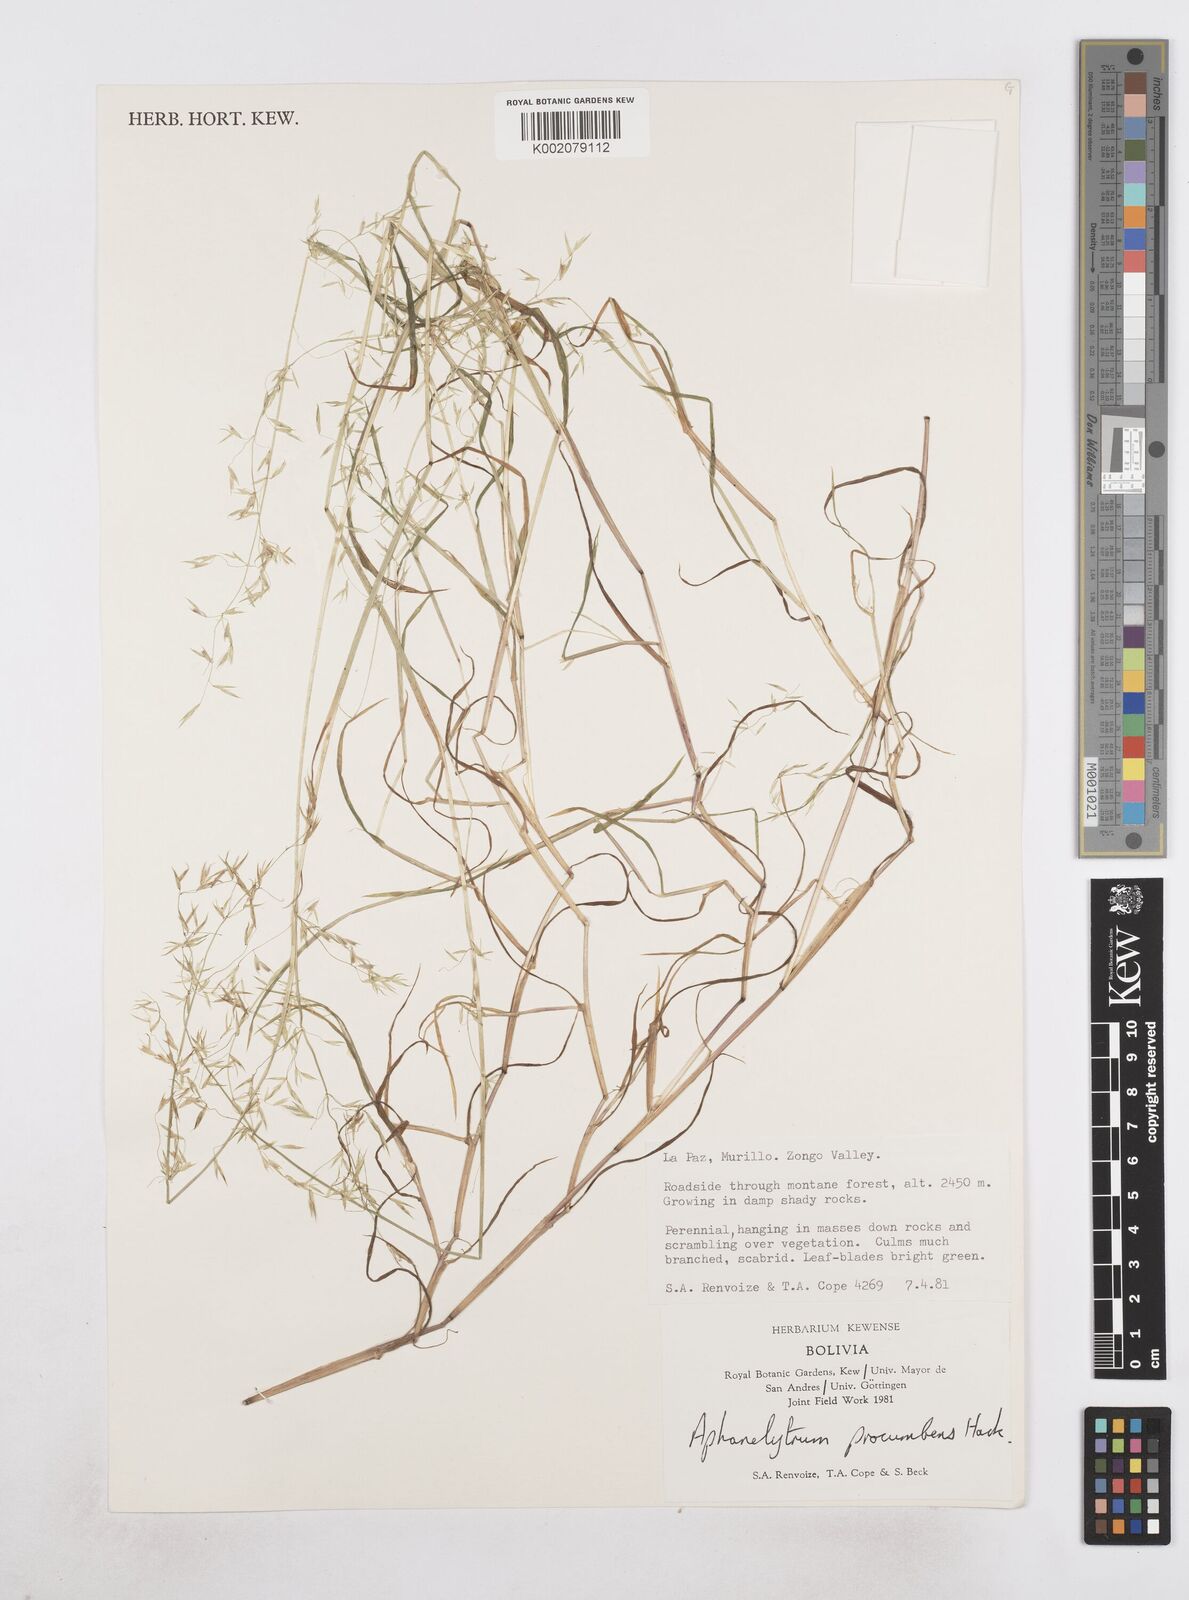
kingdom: Plantae
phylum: Tracheophyta
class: Liliopsida
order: Poales
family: Poaceae
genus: Poa
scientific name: Poa hitchcockiana
